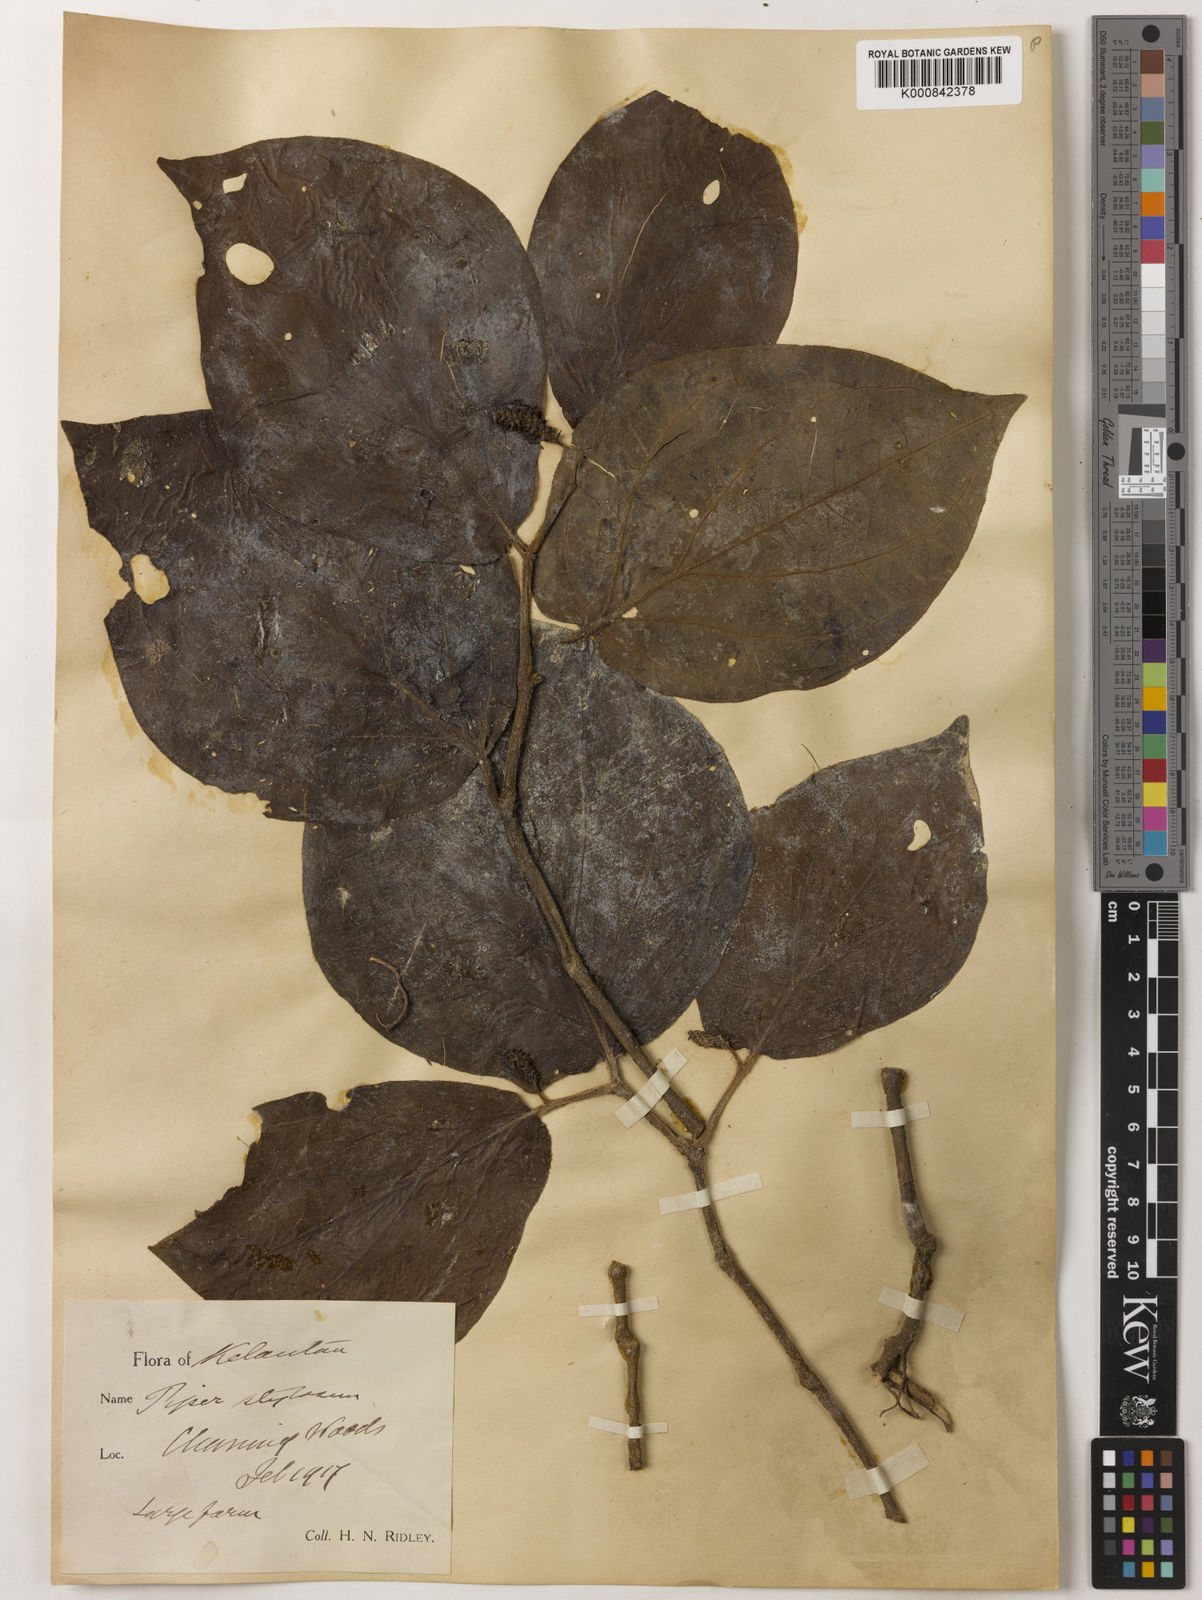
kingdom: Plantae
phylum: Tracheophyta
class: Magnoliopsida
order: Piperales
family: Piperaceae
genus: Piper
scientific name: Piper rostratum
